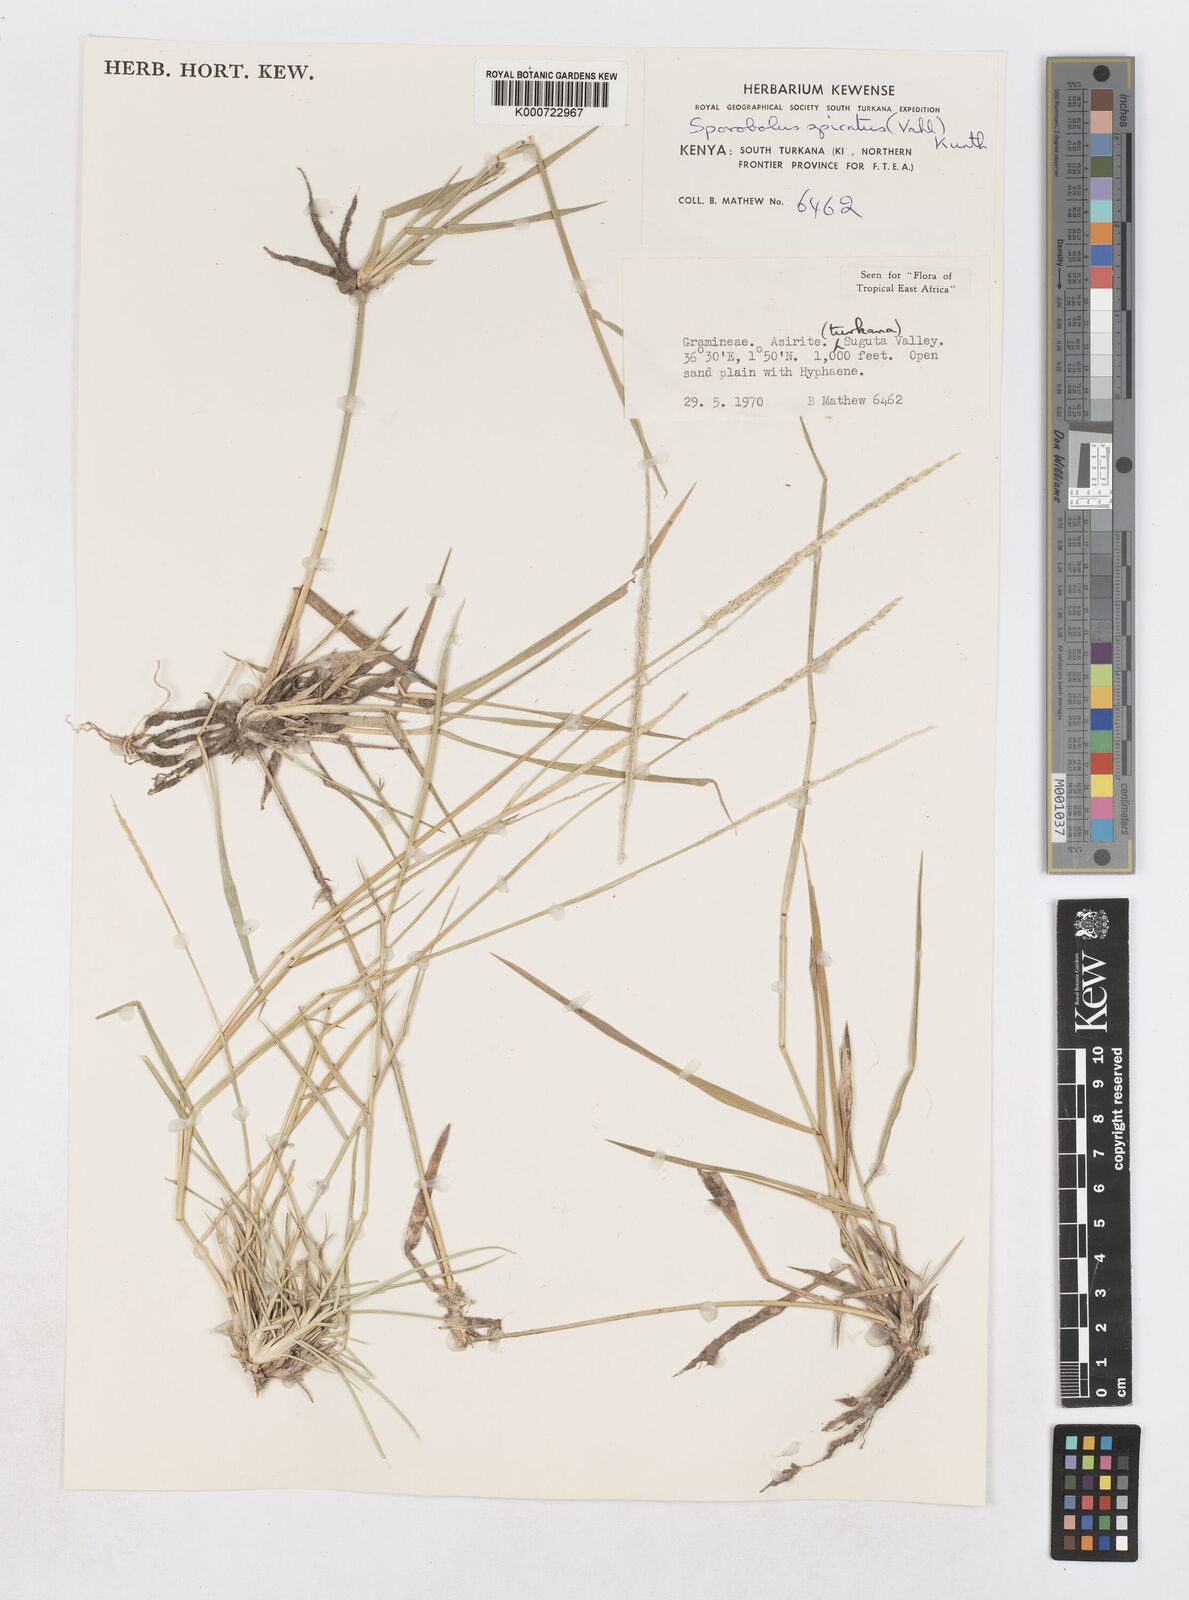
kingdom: Plantae
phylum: Tracheophyta
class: Liliopsida
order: Poales
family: Poaceae
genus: Sporobolus
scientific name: Sporobolus spicatus
